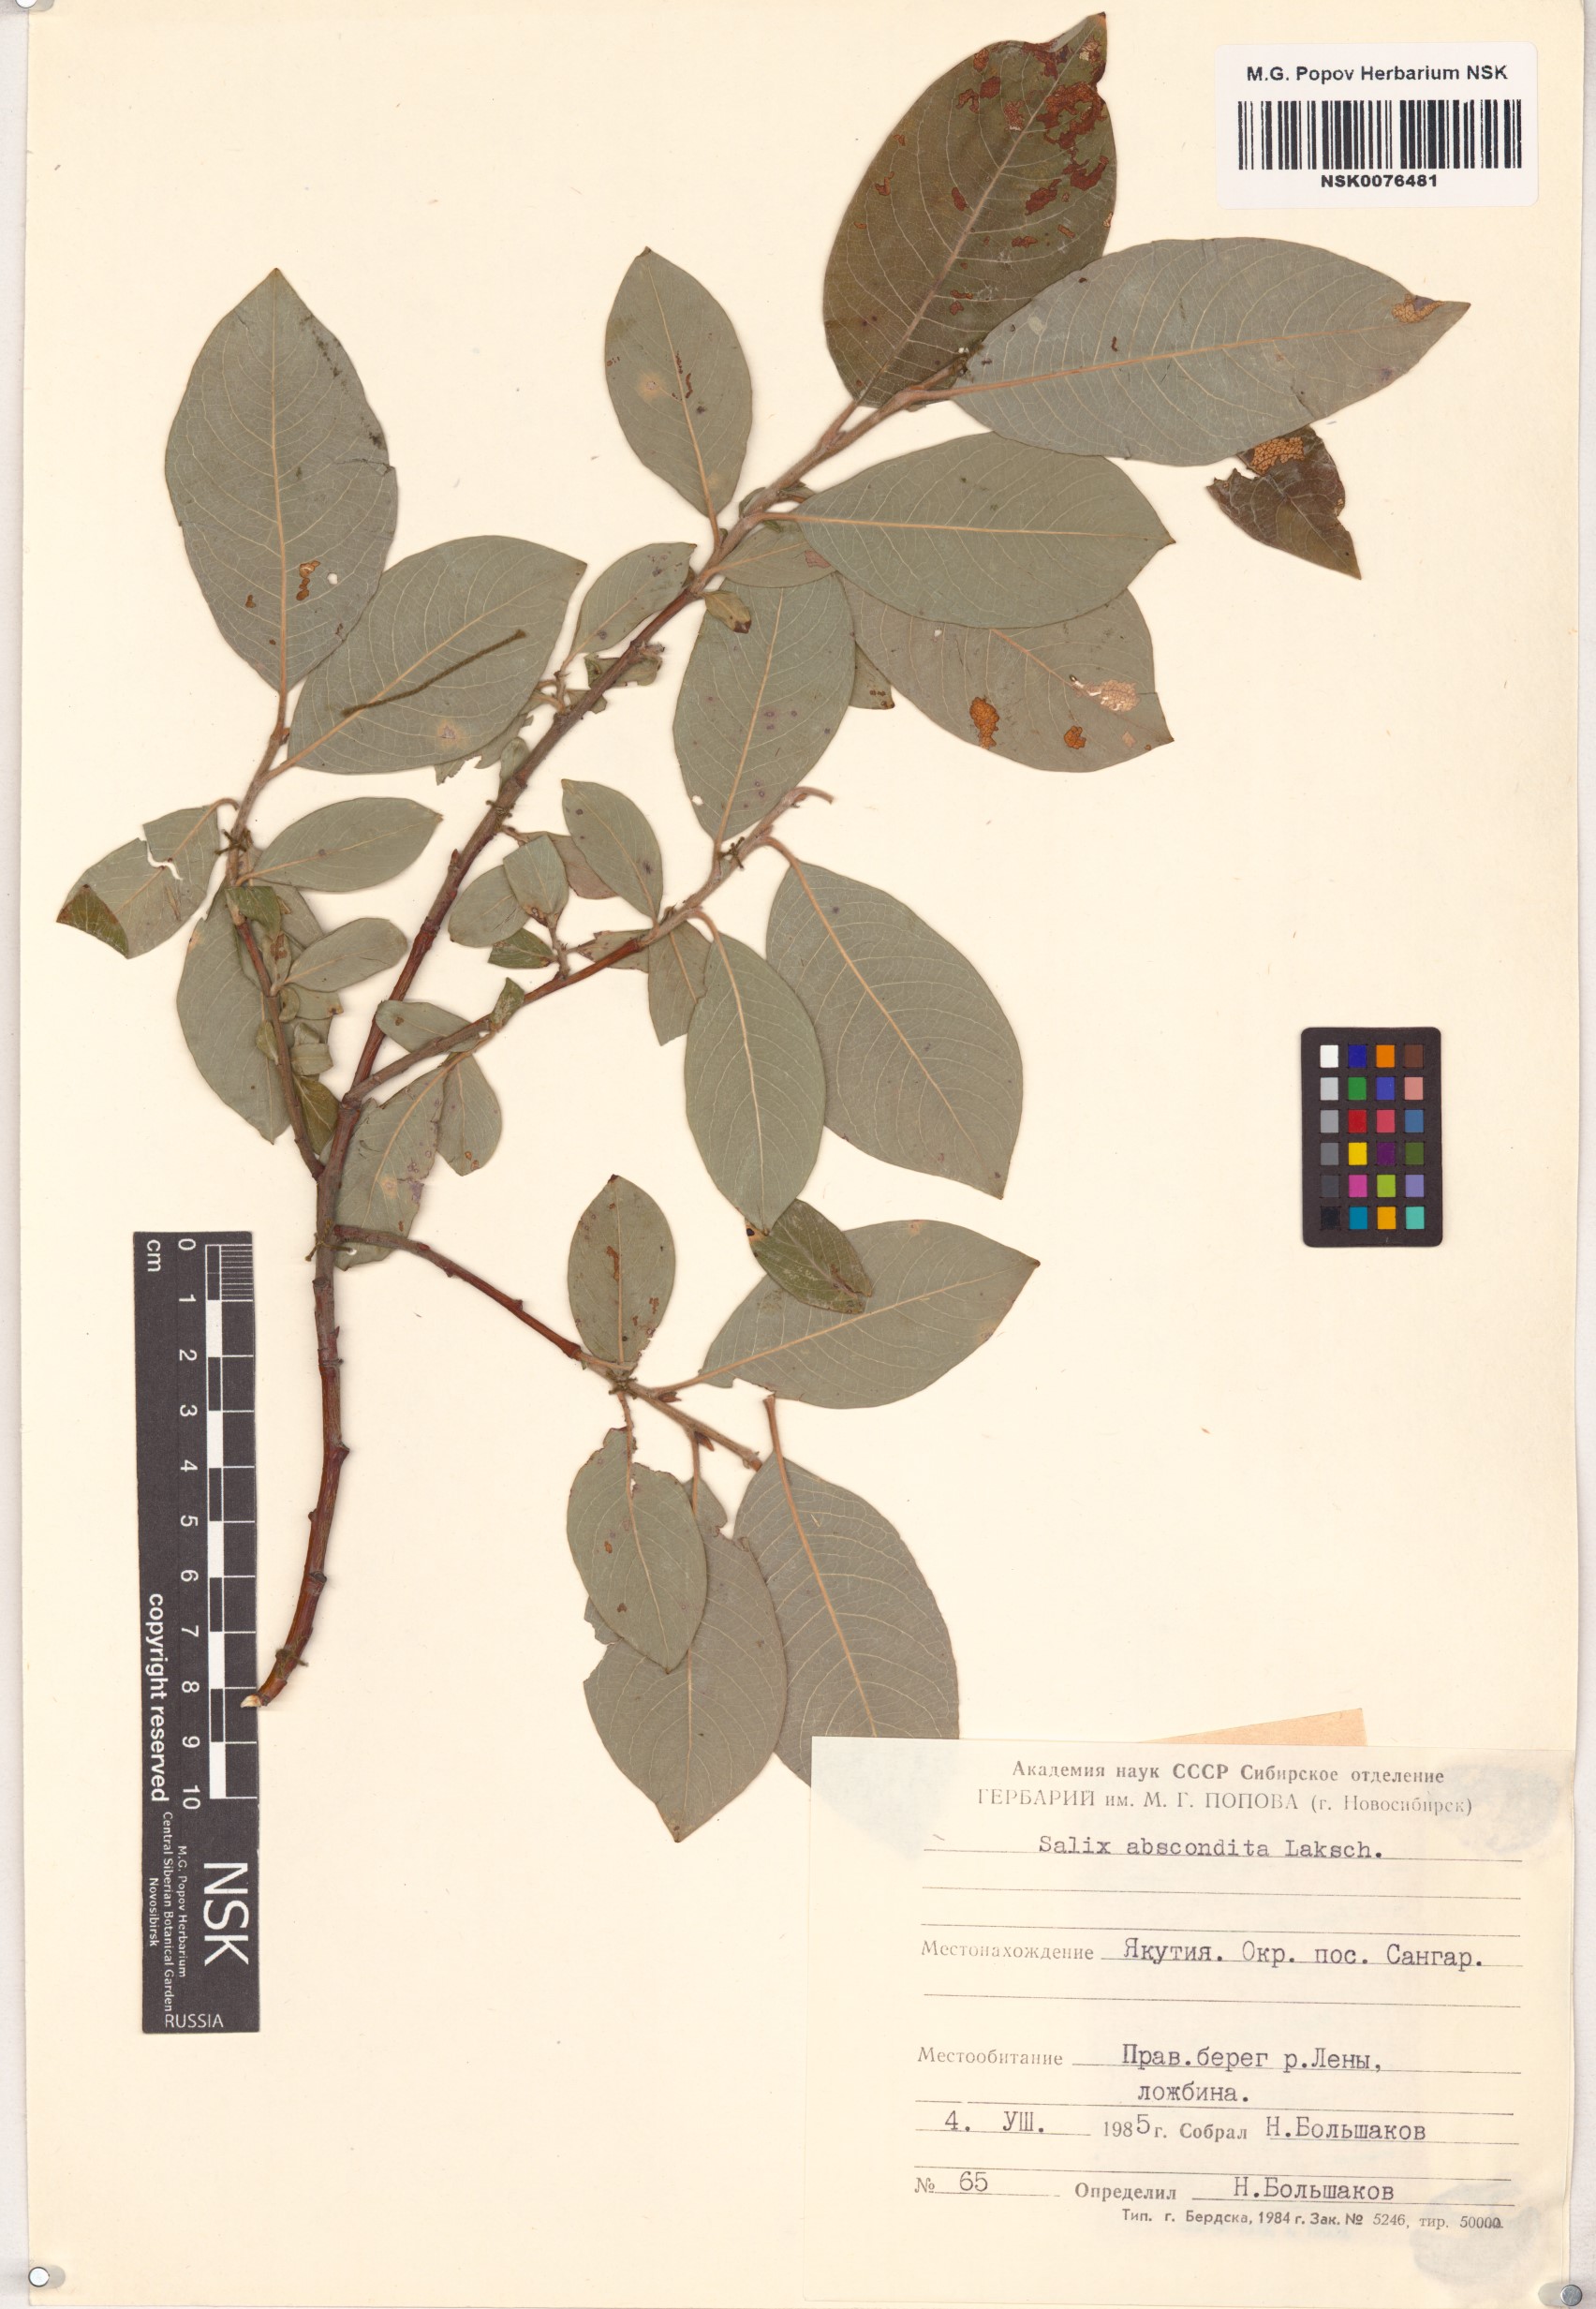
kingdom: Plantae
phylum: Tracheophyta
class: Magnoliopsida
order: Malpighiales
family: Salicaceae
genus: Salix
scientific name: Salix abscondita
